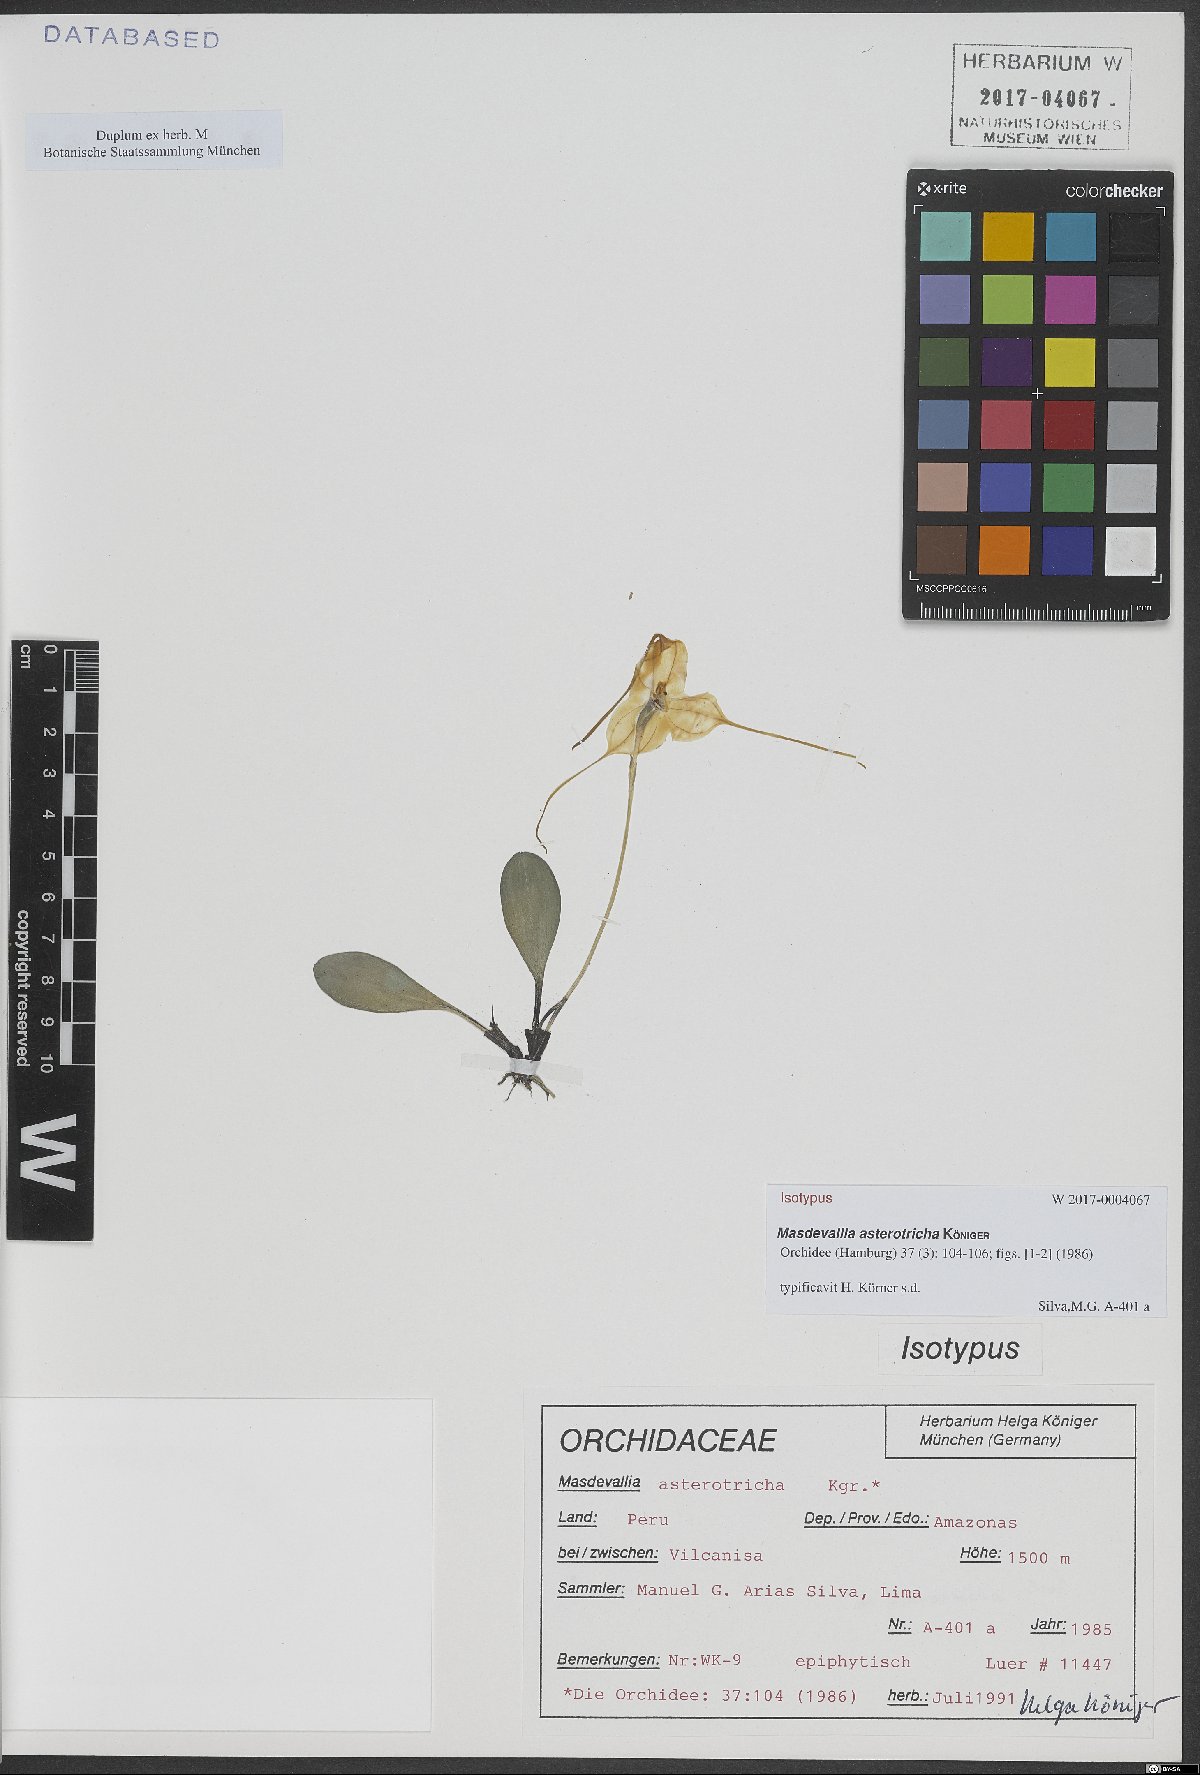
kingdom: Plantae
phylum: Tracheophyta
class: Liliopsida
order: Asparagales
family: Orchidaceae
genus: Masdevallia
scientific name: Masdevallia asterotricha
